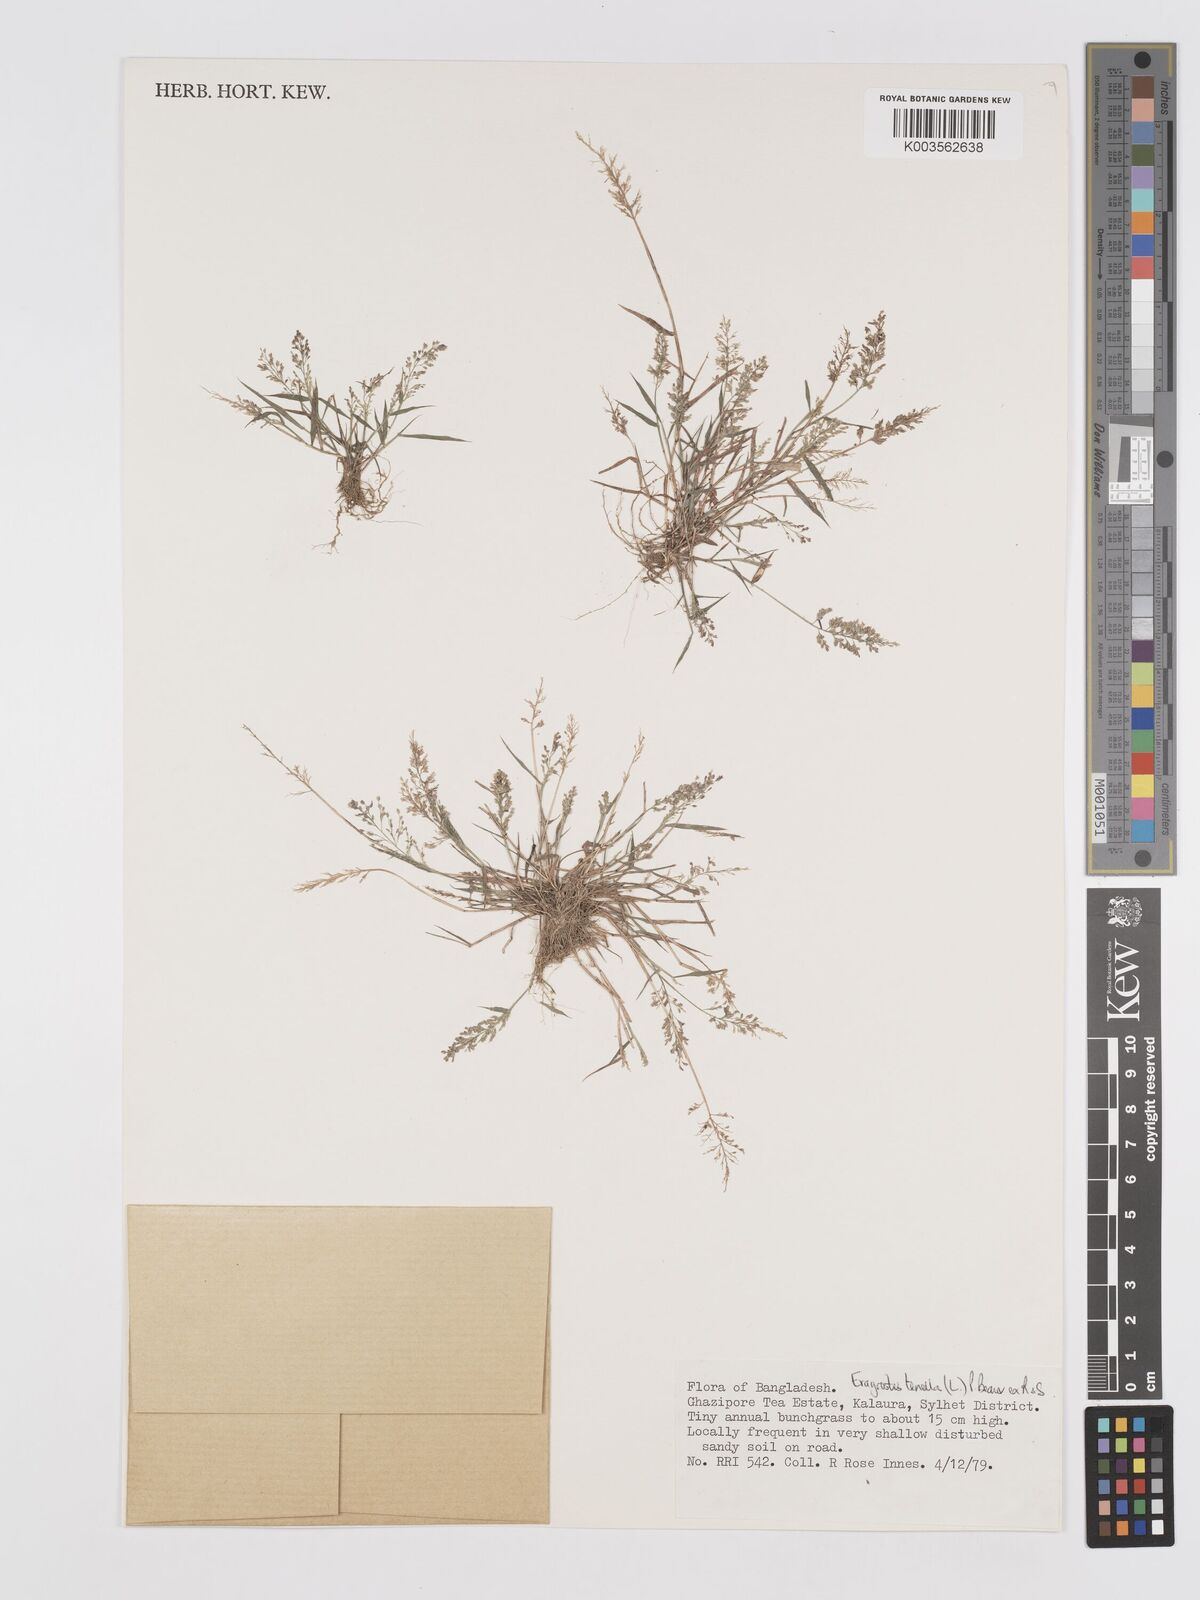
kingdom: Plantae
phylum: Tracheophyta
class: Liliopsida
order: Poales
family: Poaceae
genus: Eragrostis
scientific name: Eragrostis tenella
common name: Japanese lovegrass
